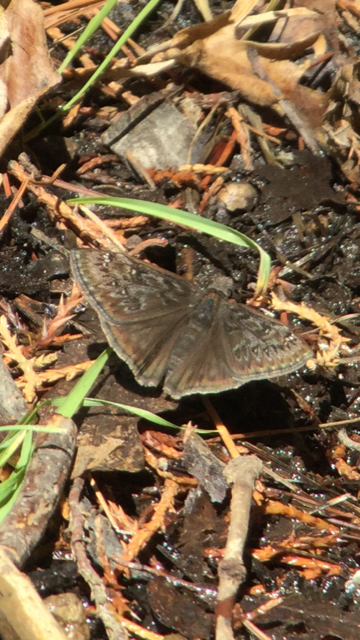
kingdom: Animalia
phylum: Arthropoda
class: Insecta
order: Lepidoptera
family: Hesperiidae
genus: Erynnis
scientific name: Erynnis telemachus
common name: Rocky Mountain Duskywing
